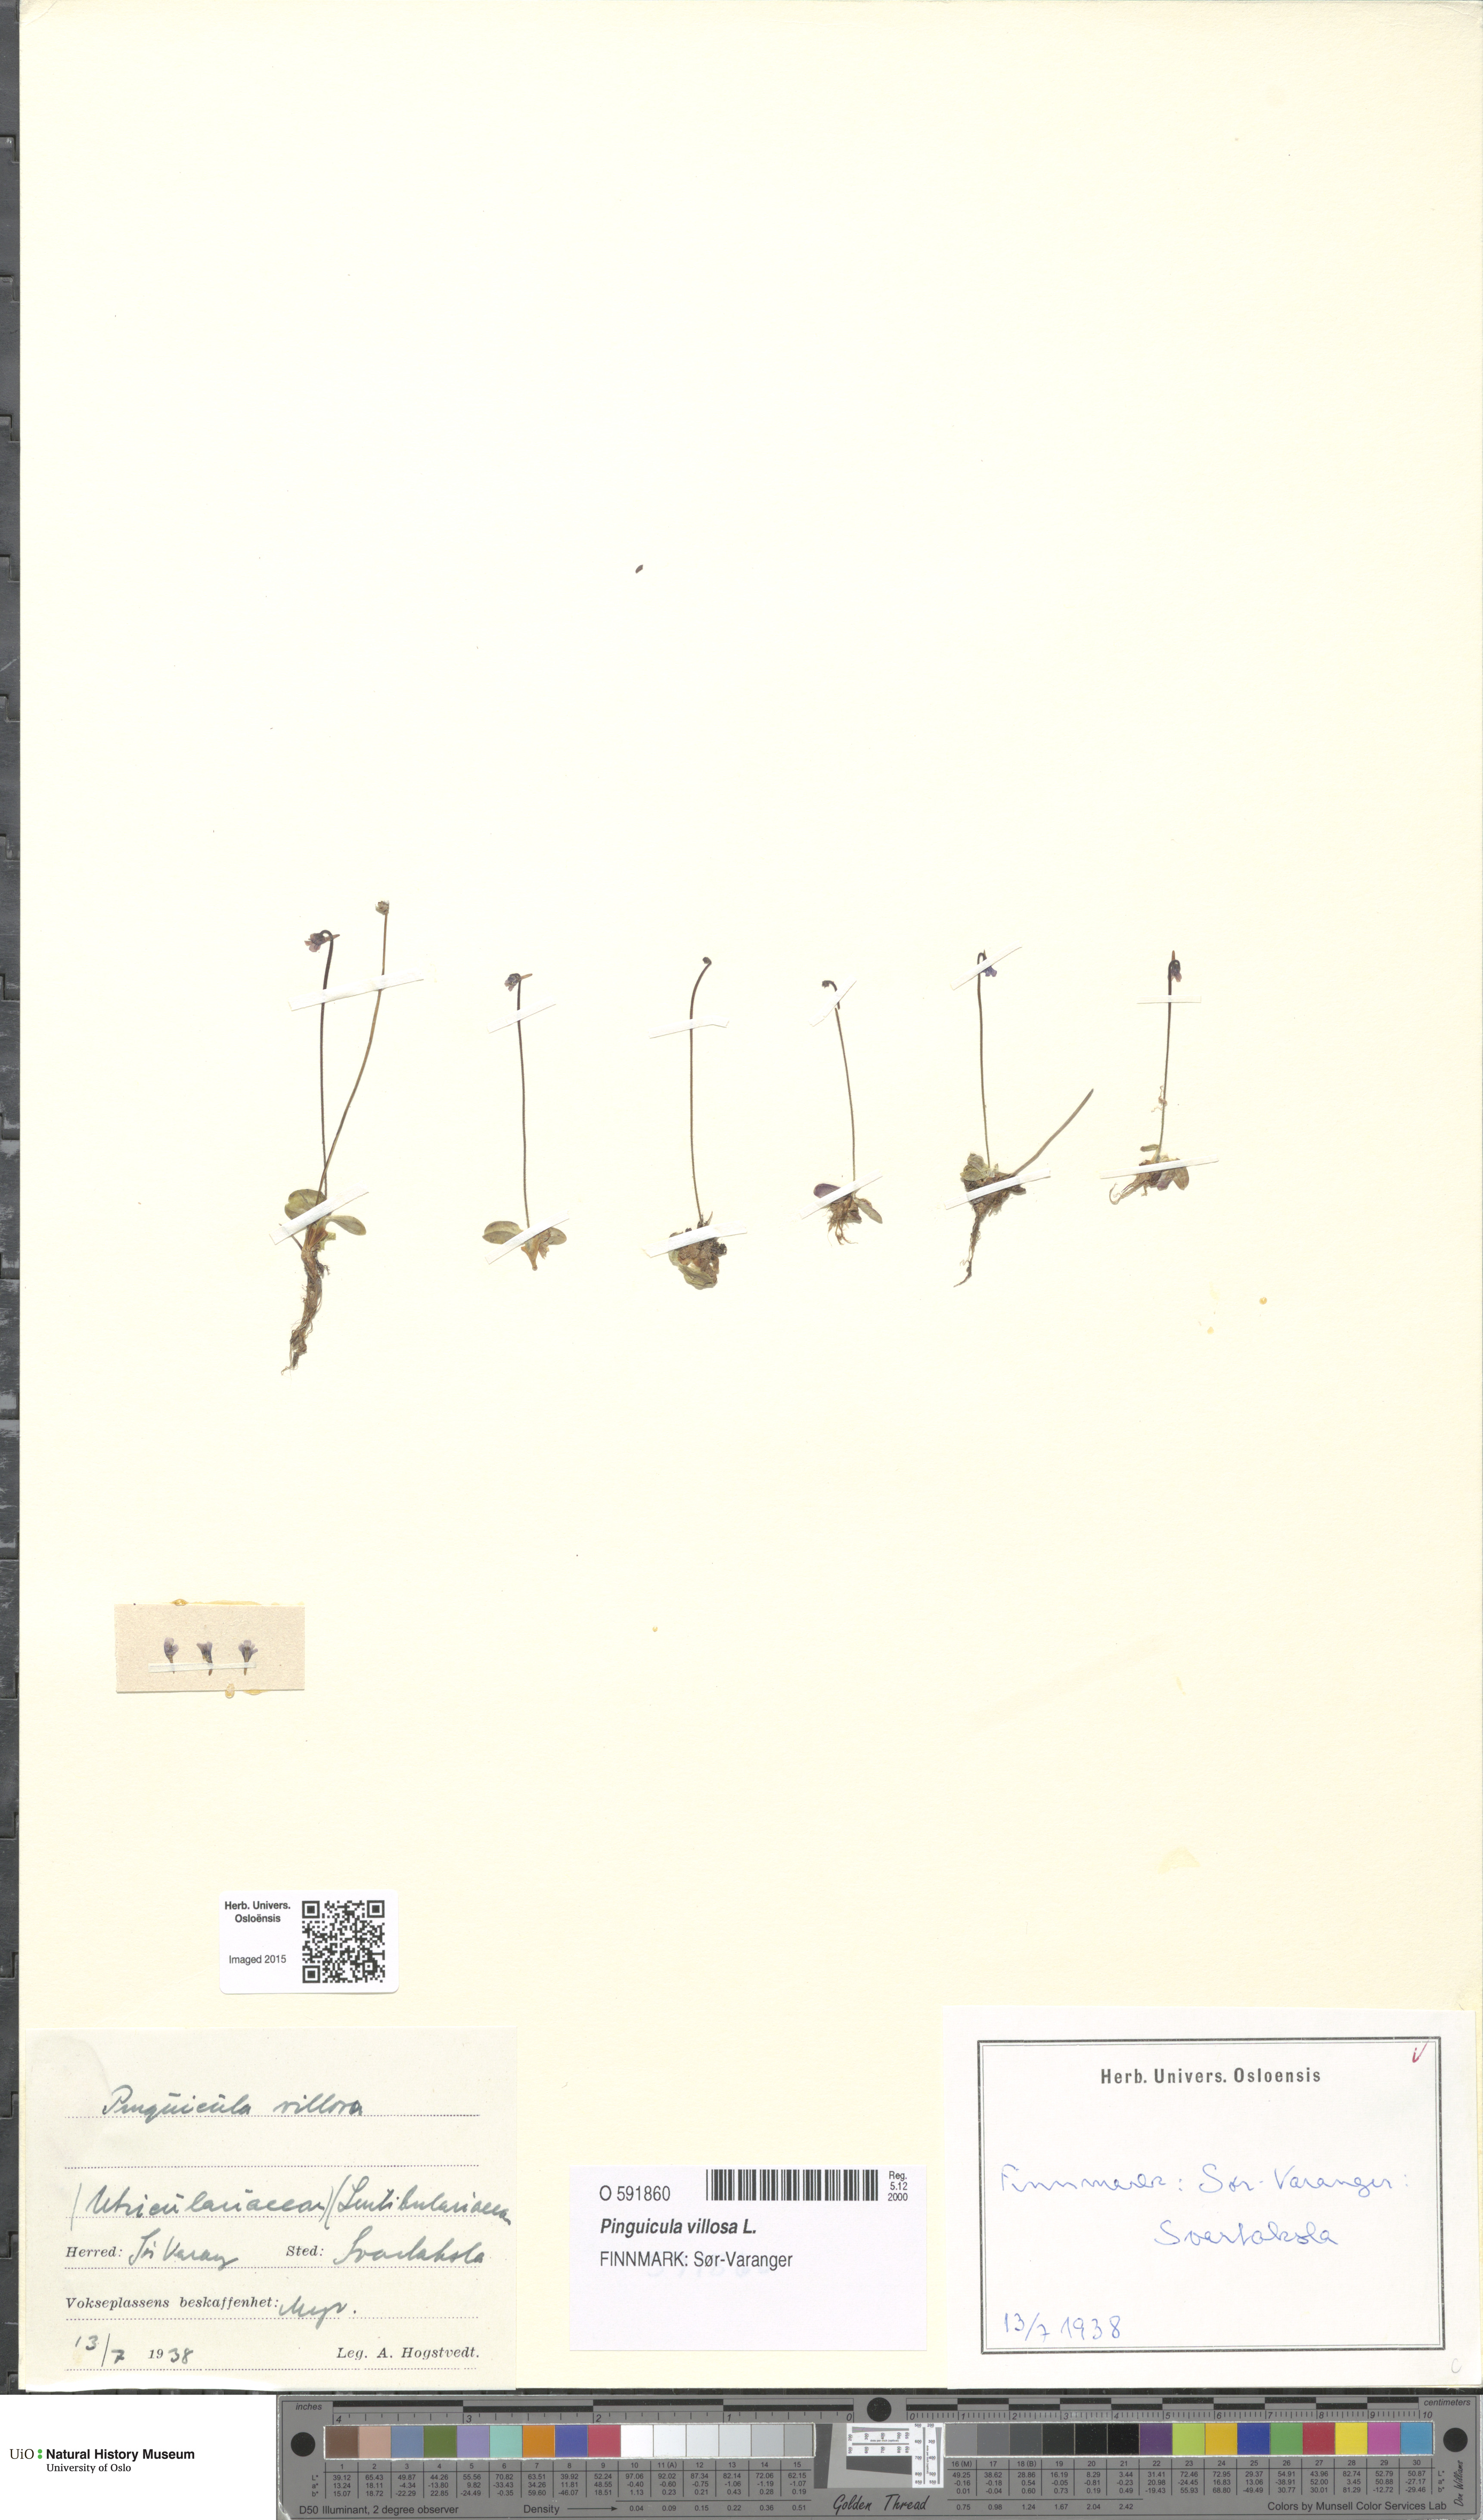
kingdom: Plantae
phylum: Tracheophyta
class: Magnoliopsida
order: Lamiales
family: Lentibulariaceae
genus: Pinguicula
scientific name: Pinguicula villosa
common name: Hairy butterwort
